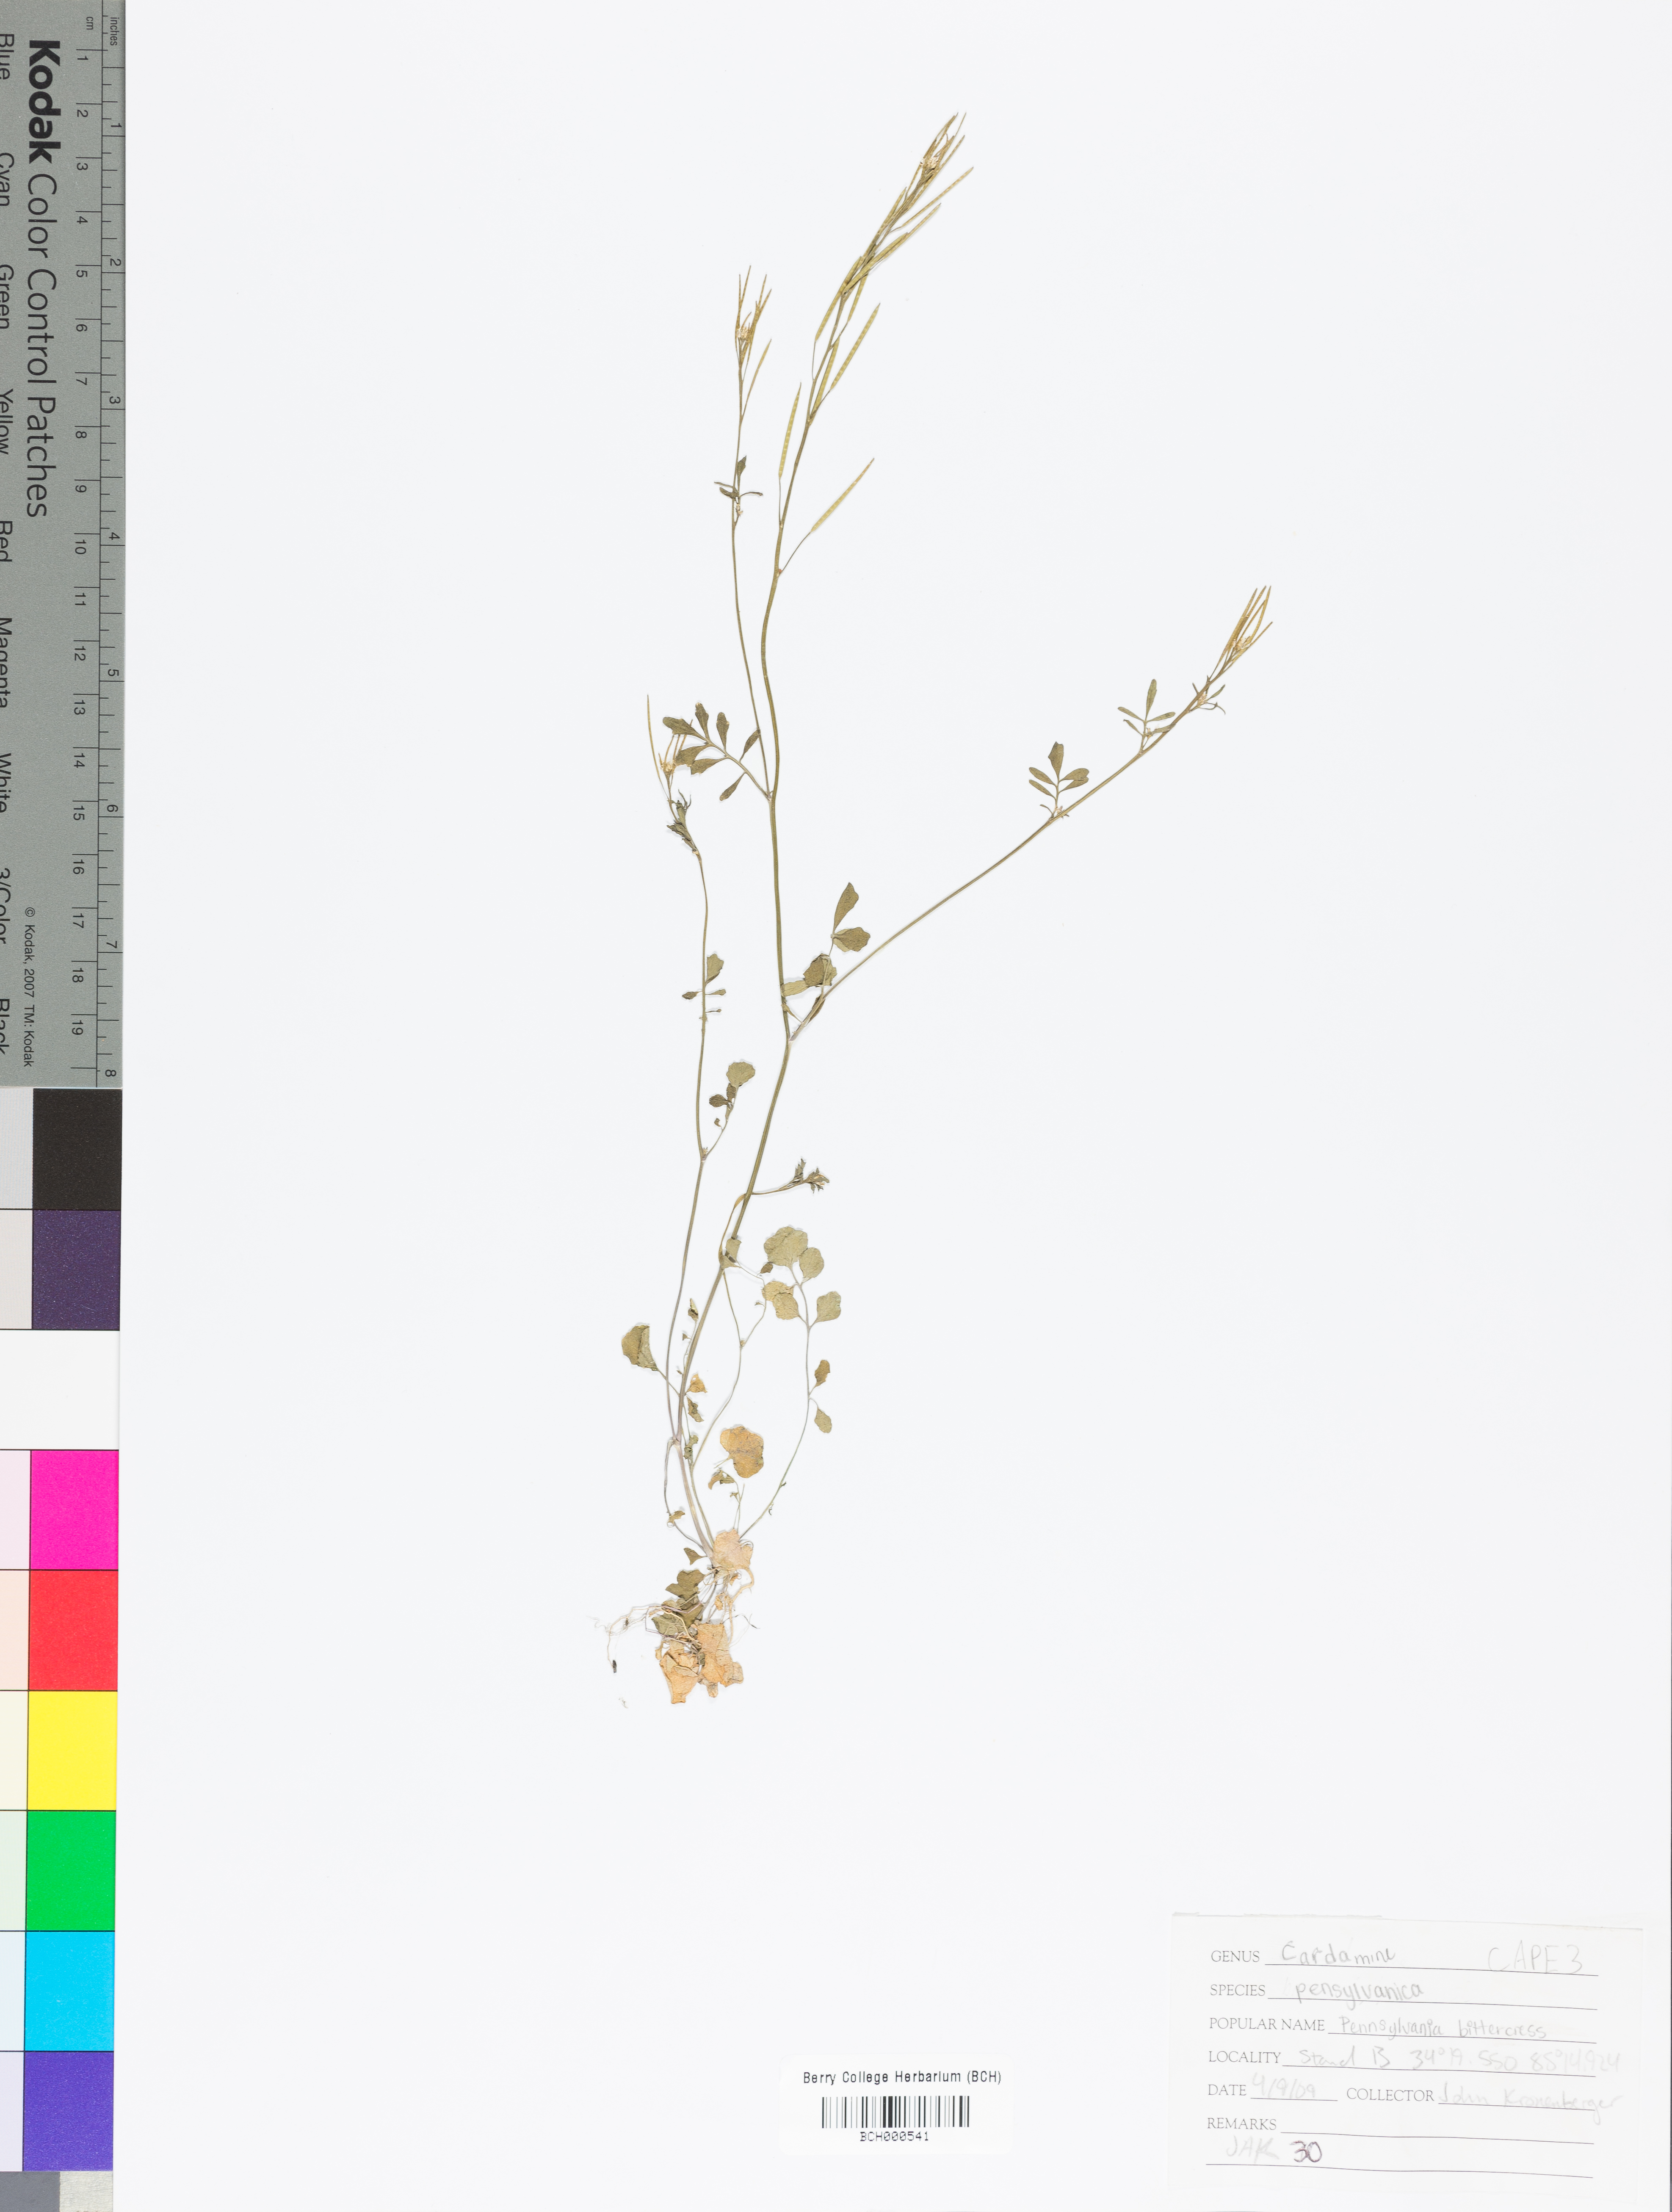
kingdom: Plantae
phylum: Tracheophyta
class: Magnoliopsida
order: Brassicales
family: Brassicaceae
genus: Cardamine
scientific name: Cardamine pensylvanica
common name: Pennsylvania bittercress
